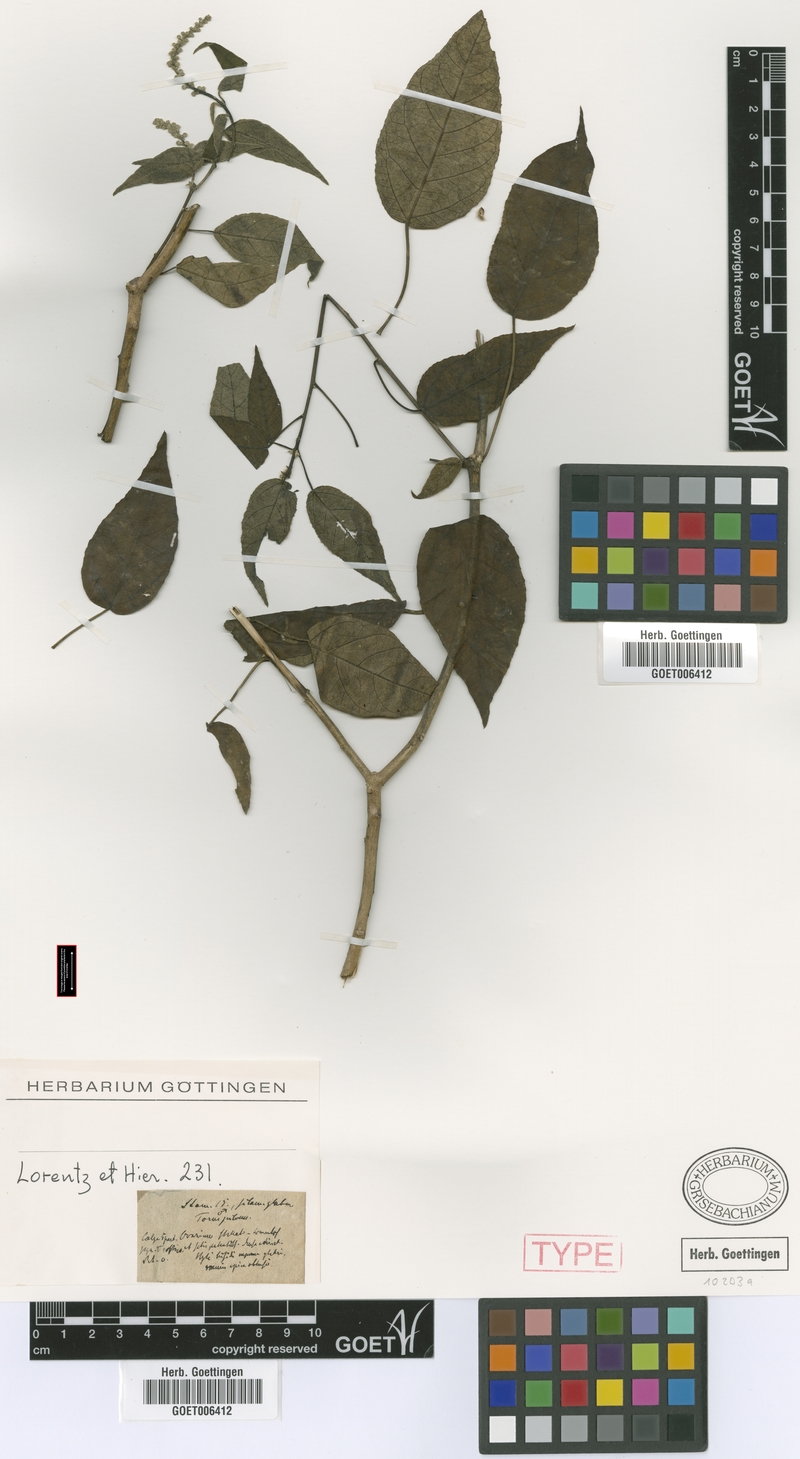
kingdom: Plantae
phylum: Tracheophyta
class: Magnoliopsida
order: Malpighiales
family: Euphorbiaceae
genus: Croton
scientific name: Croton saltensis
